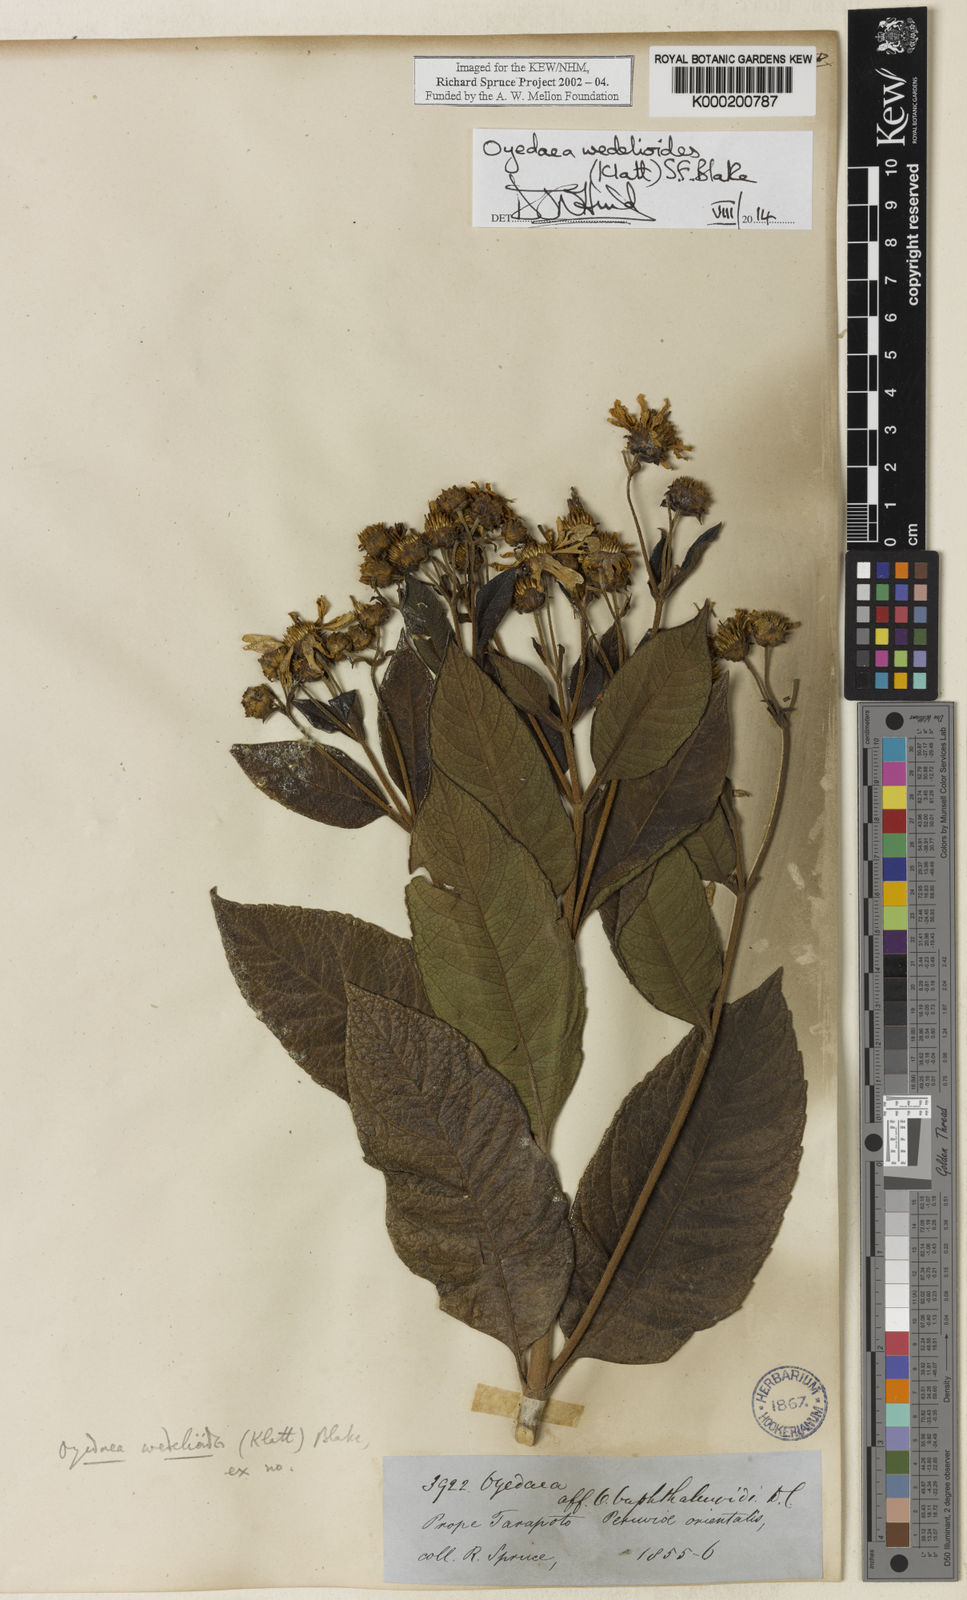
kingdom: Plantae
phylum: Tracheophyta
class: Magnoliopsida
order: Asterales
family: Asteraceae
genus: Oyedaea
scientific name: Oyedaea wedelioides
